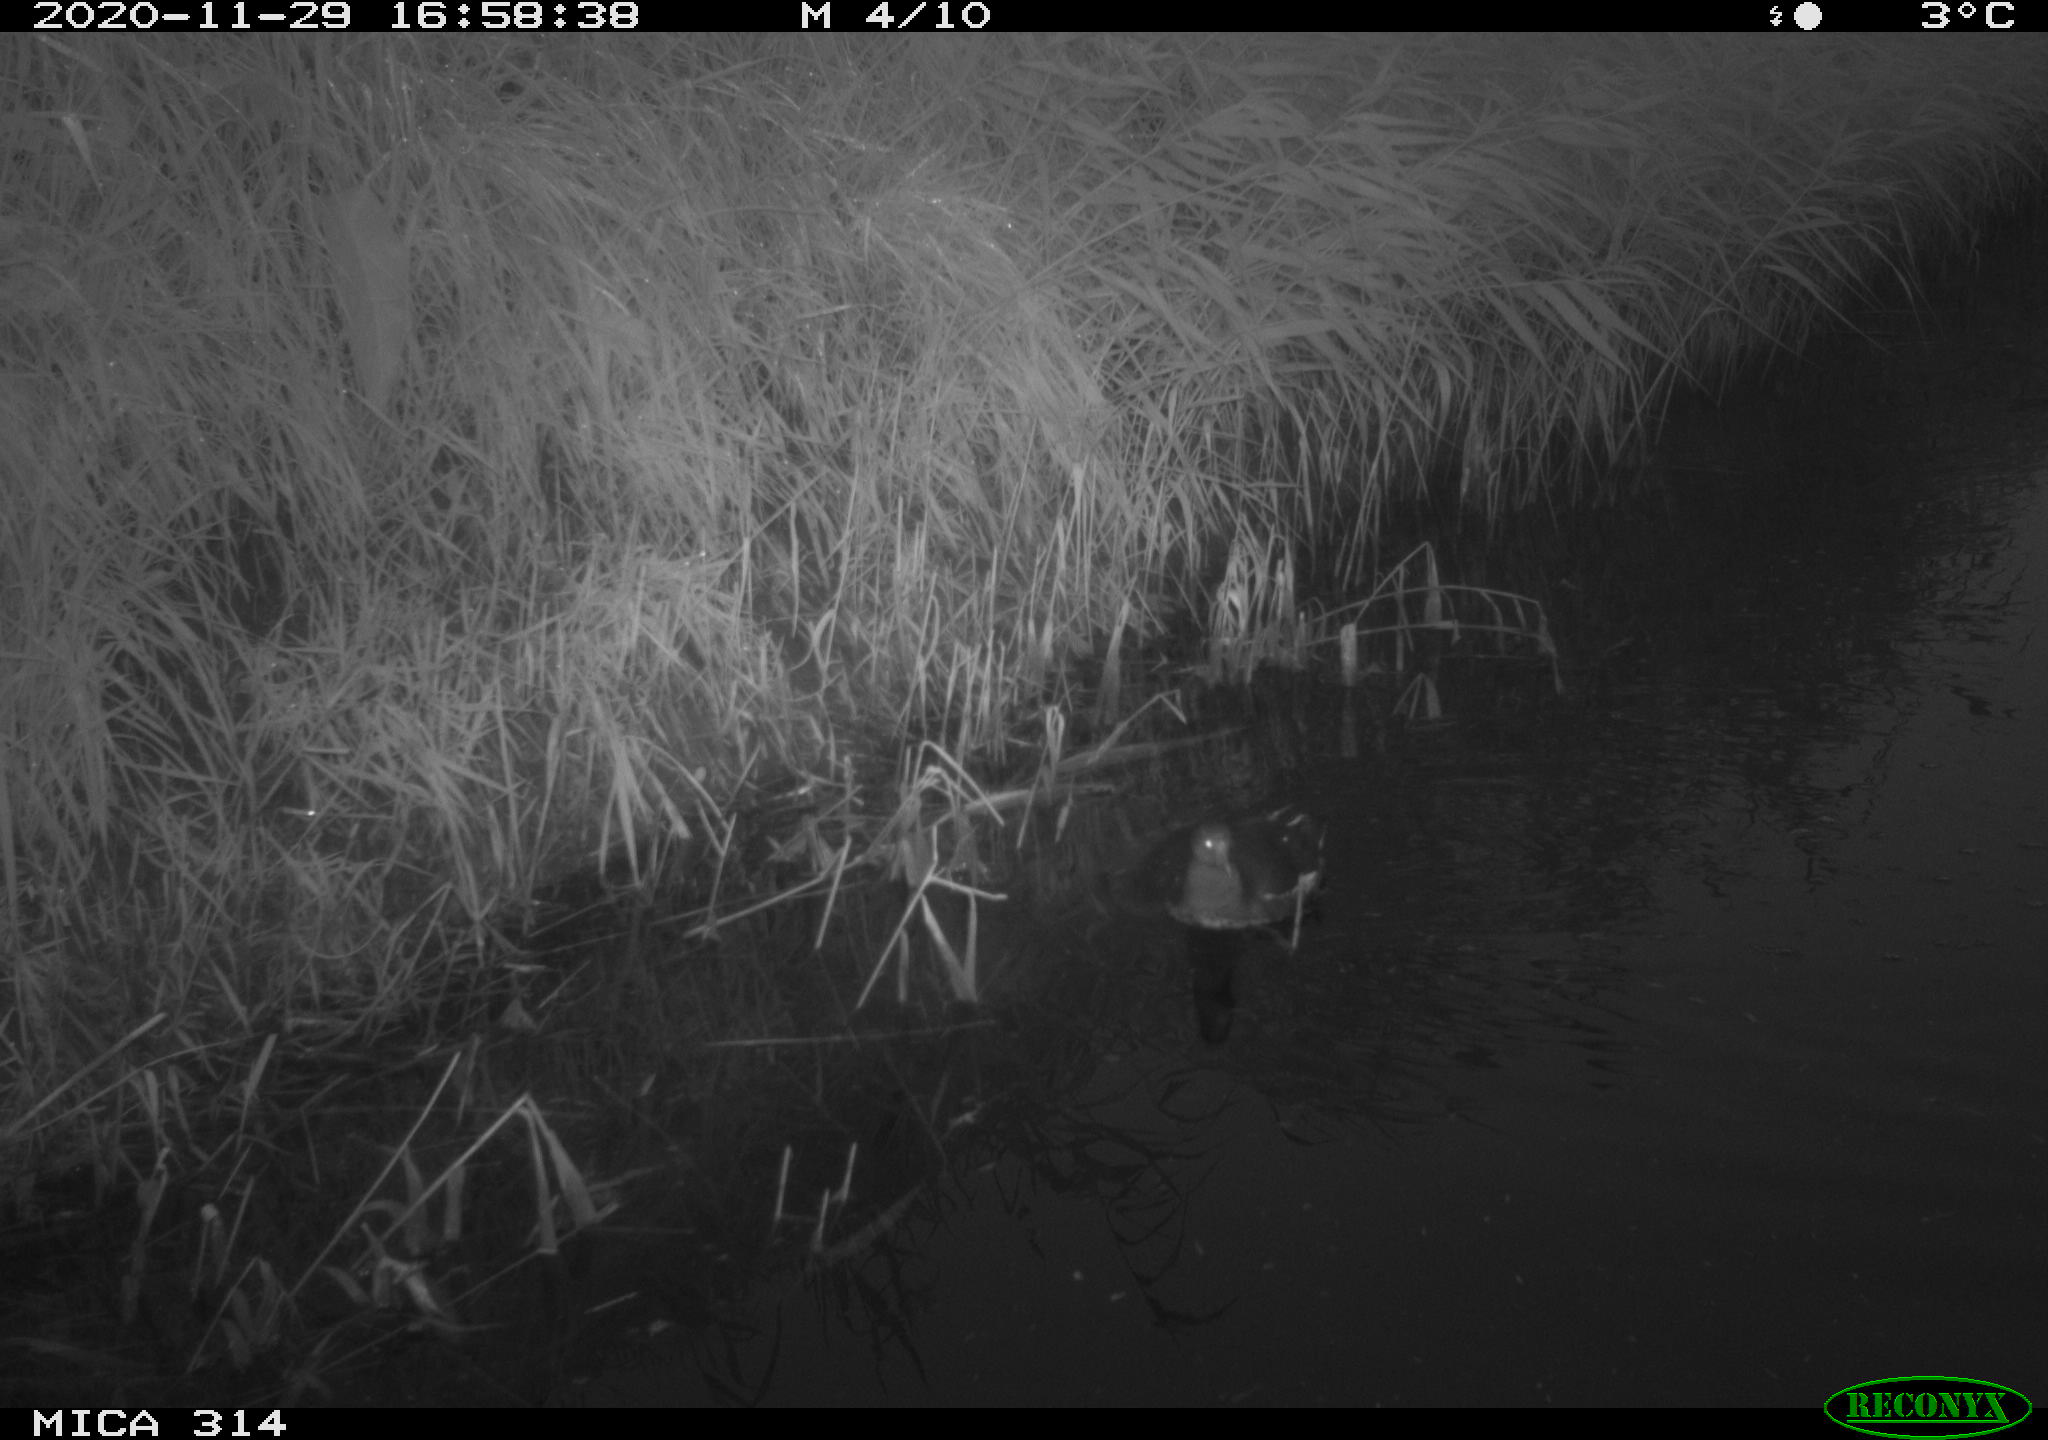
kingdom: Animalia
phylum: Chordata
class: Aves
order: Gruiformes
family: Rallidae
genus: Gallinula
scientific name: Gallinula chloropus
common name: Common moorhen
